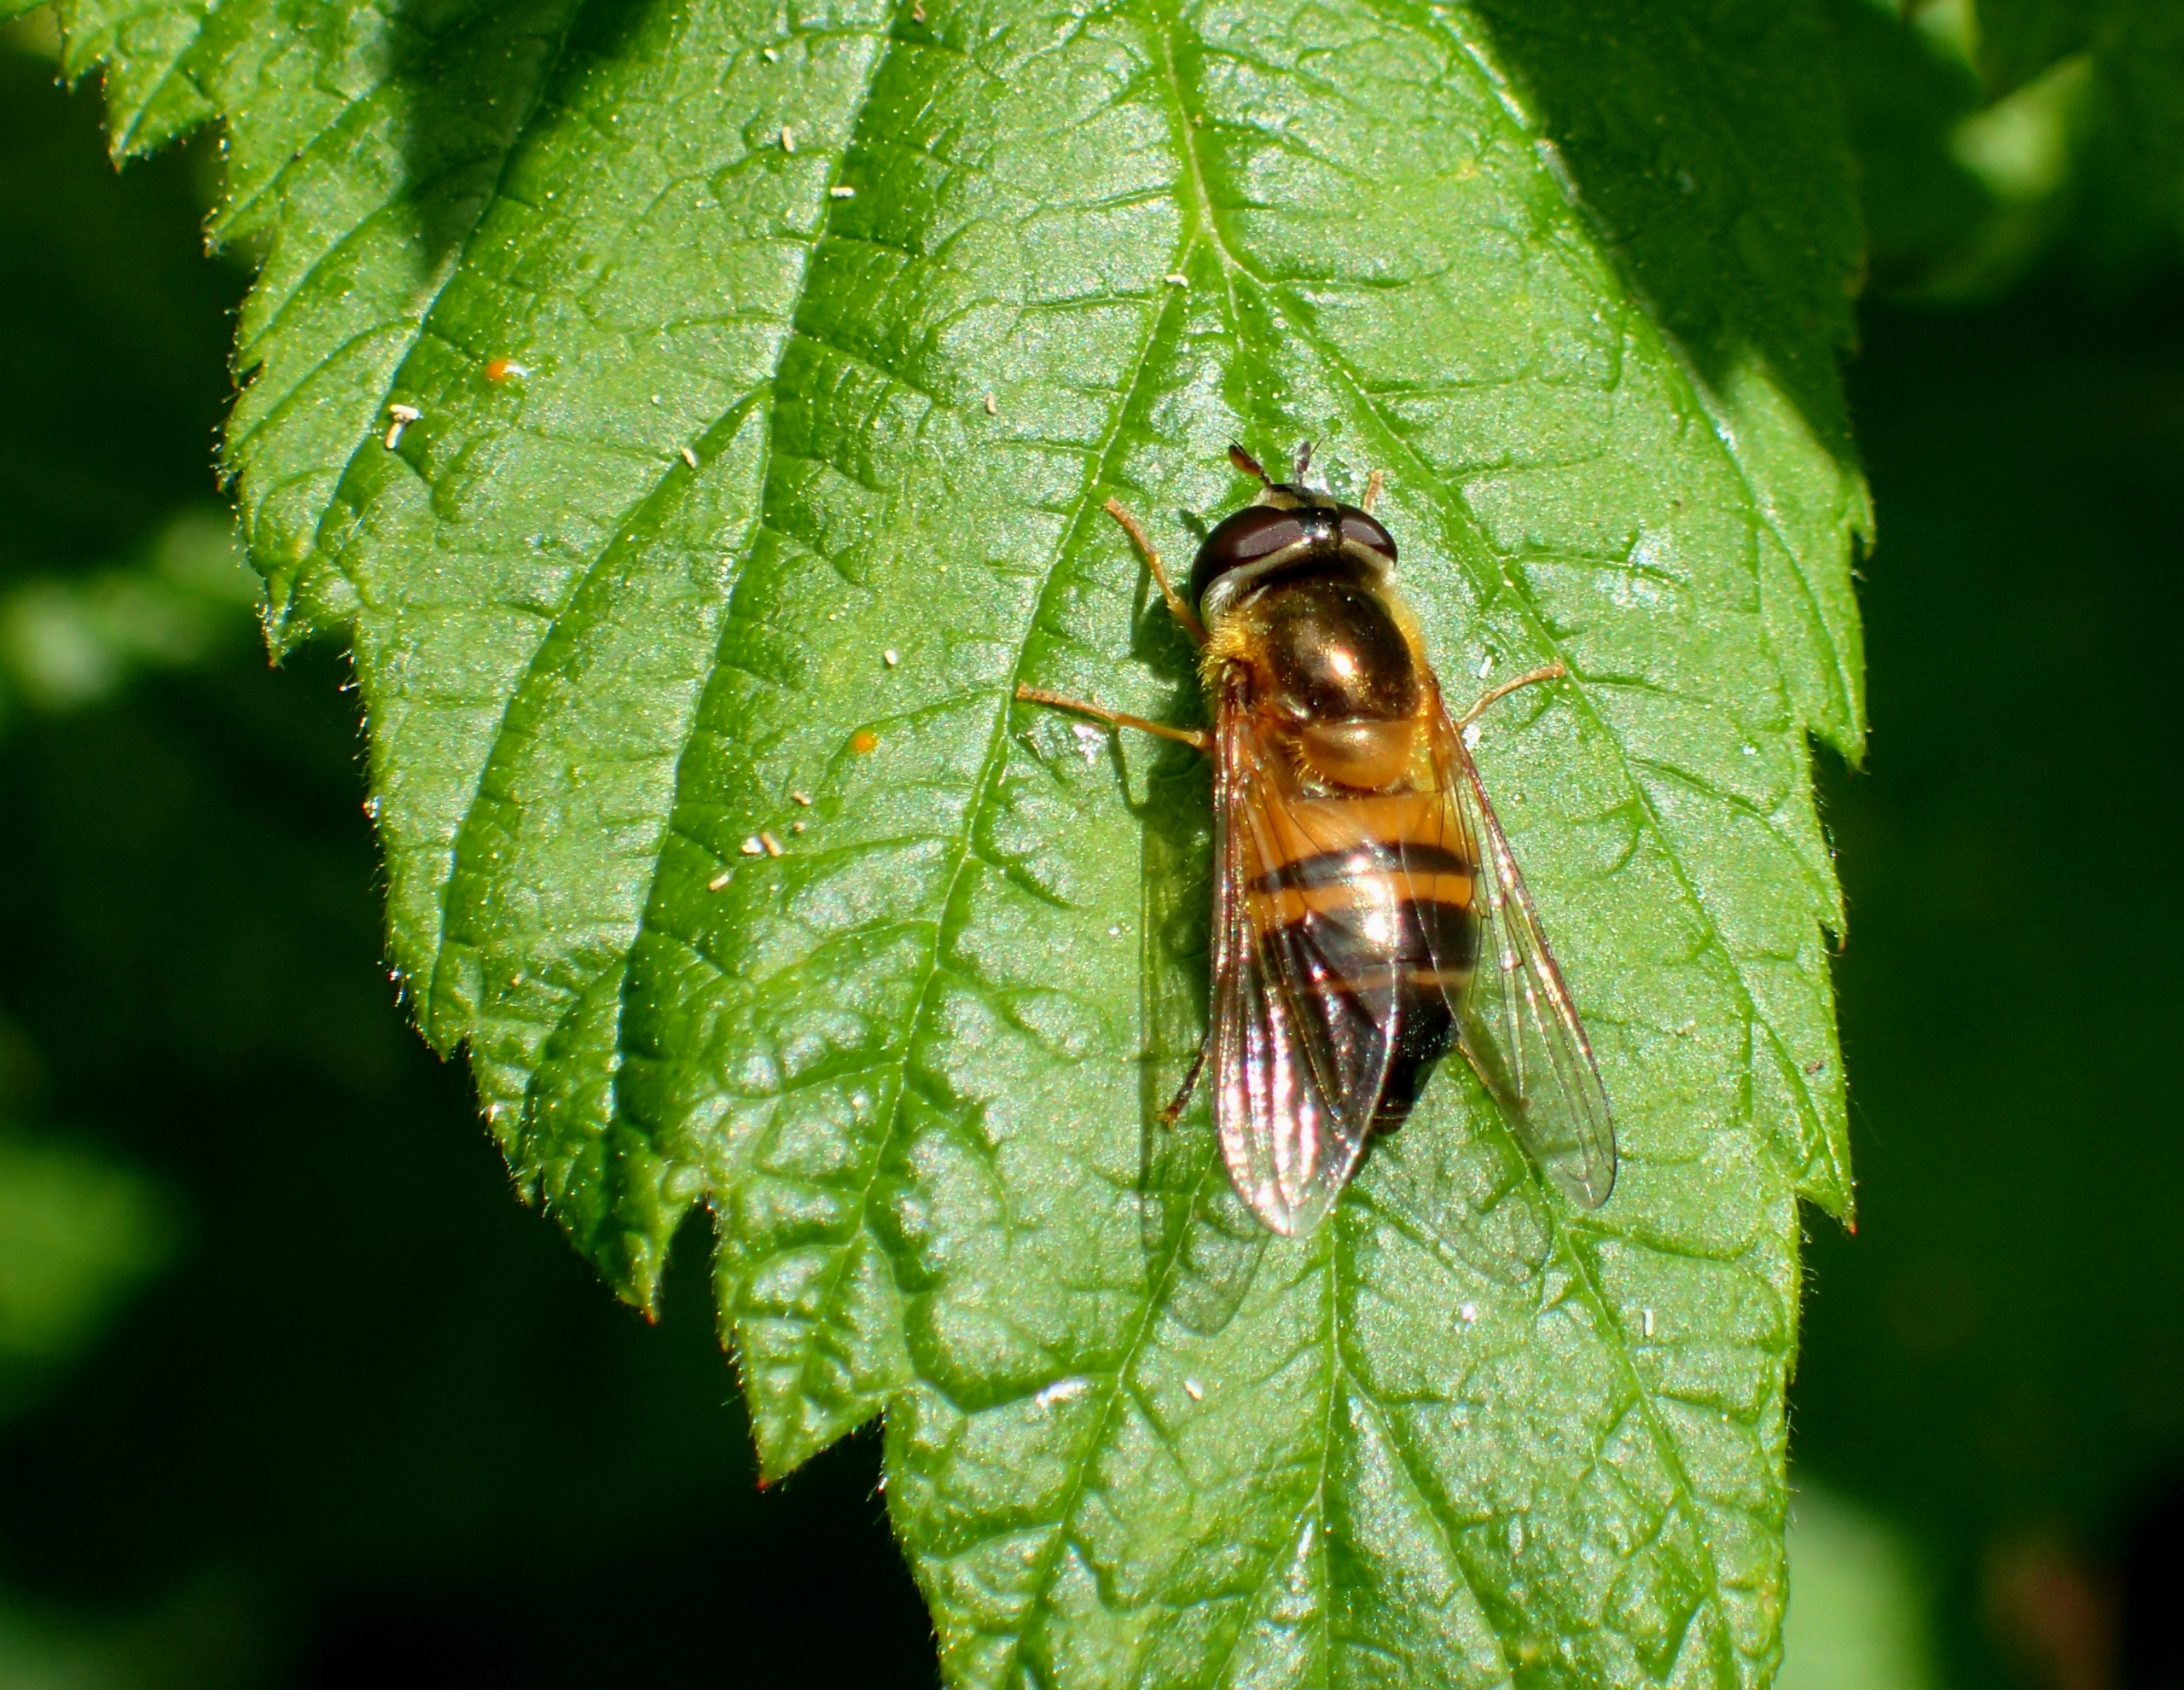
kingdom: Animalia
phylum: Arthropoda
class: Insecta
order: Diptera
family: Syrphidae
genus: Epistrophe
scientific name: Epistrophe eligans
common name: Rødgul glanssvirreflue
